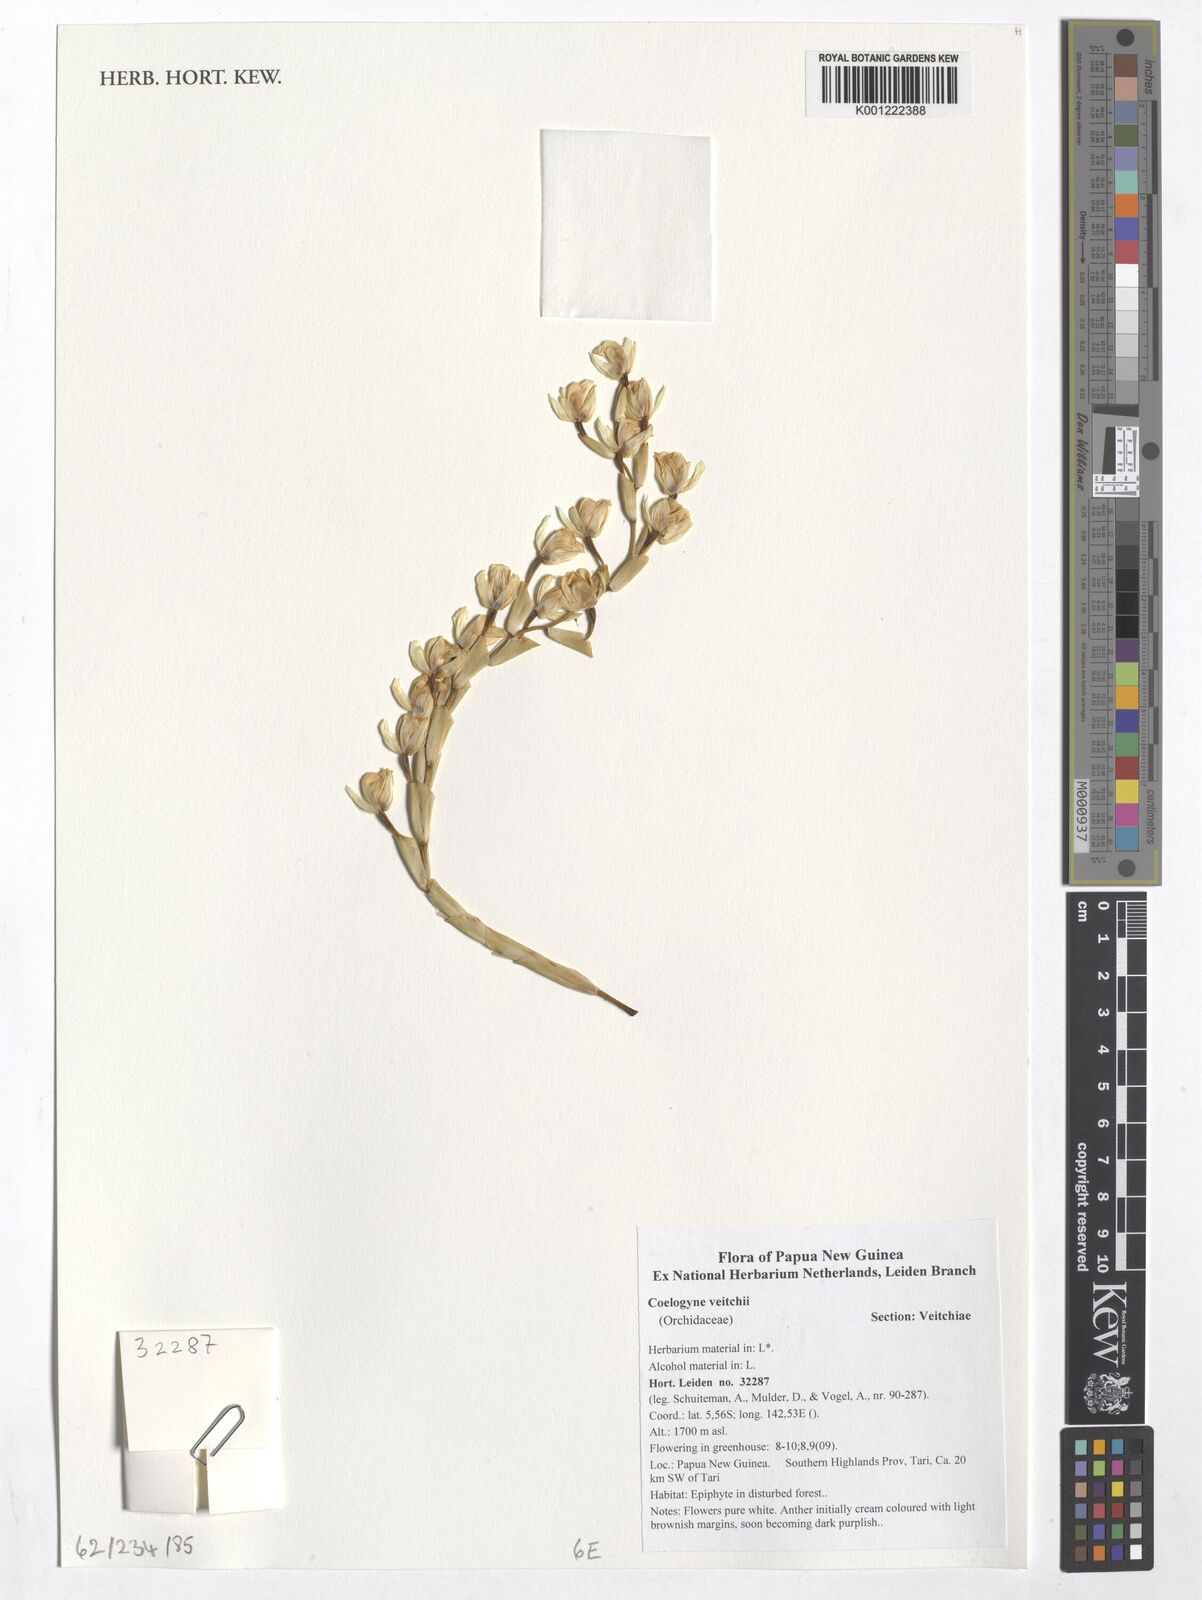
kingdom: Plantae
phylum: Tracheophyta
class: Liliopsida
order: Asparagales
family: Orchidaceae
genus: Coelogyne
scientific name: Coelogyne veitchii
